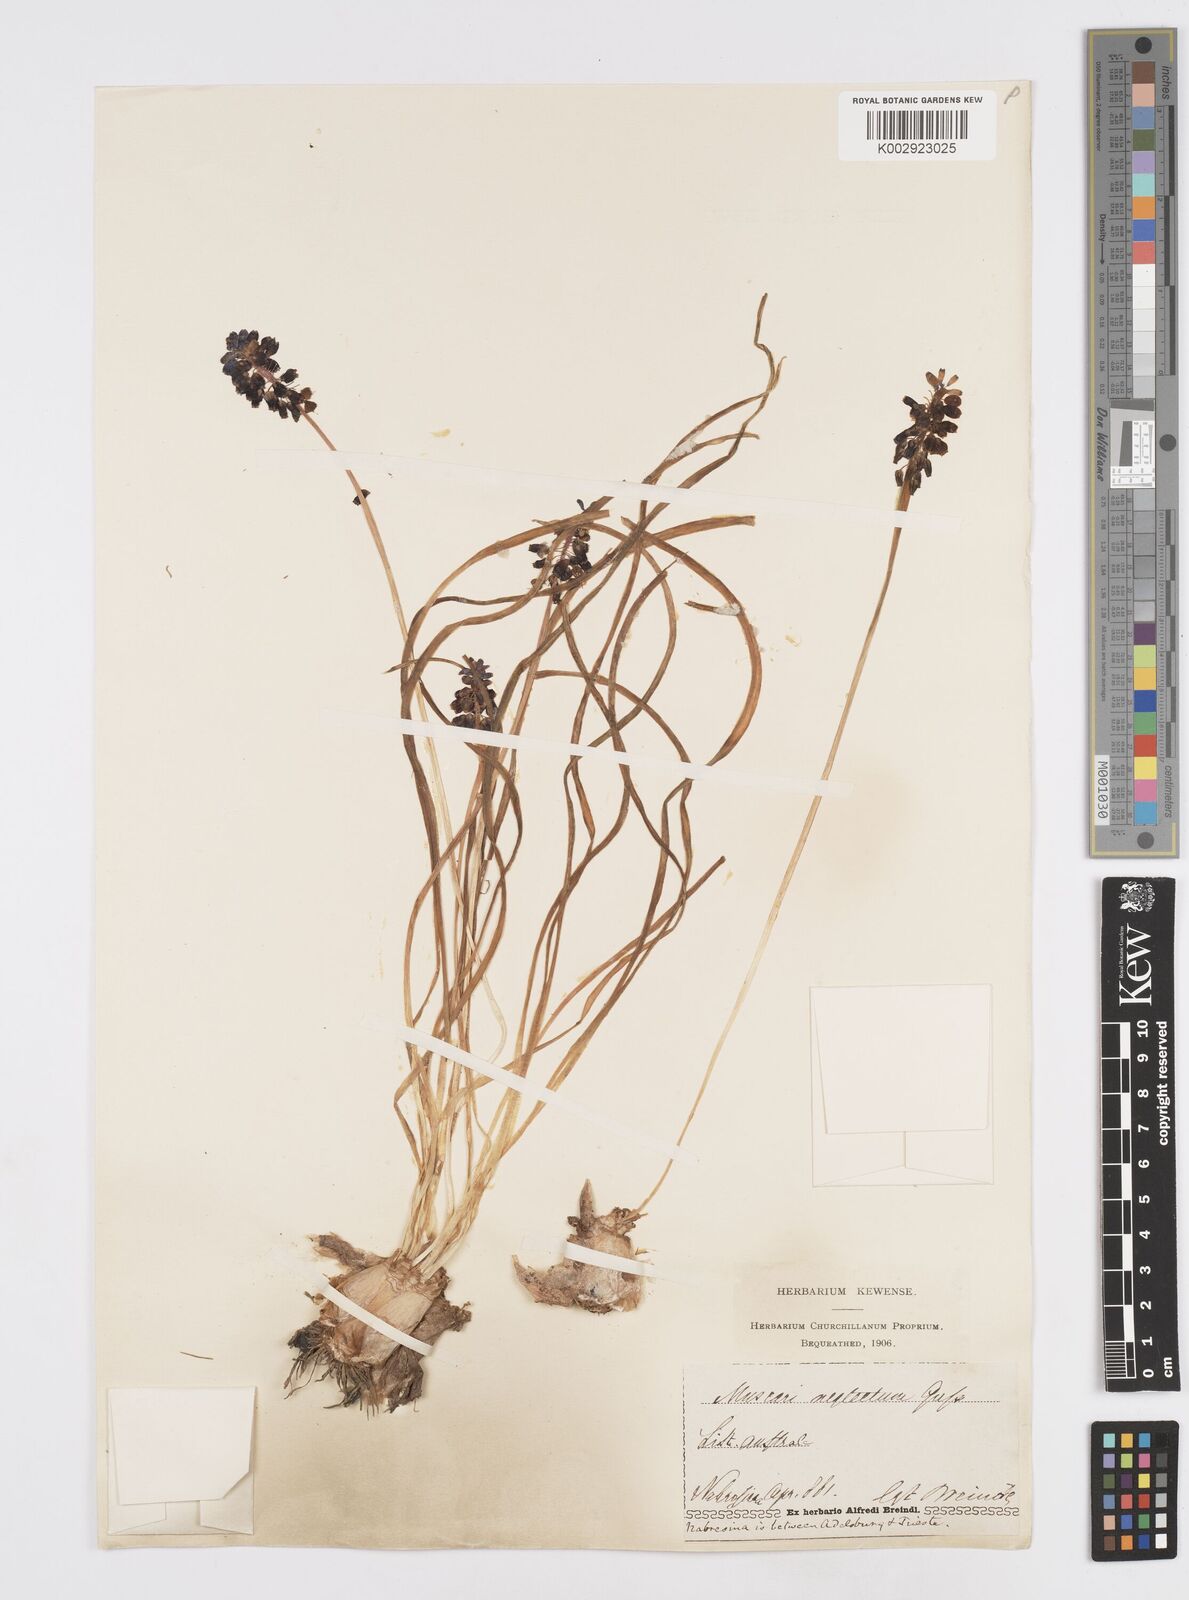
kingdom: Plantae
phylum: Tracheophyta
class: Liliopsida
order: Asparagales
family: Asparagaceae
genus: Muscari
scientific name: Muscari neglectum
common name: Grape-hyacinth
